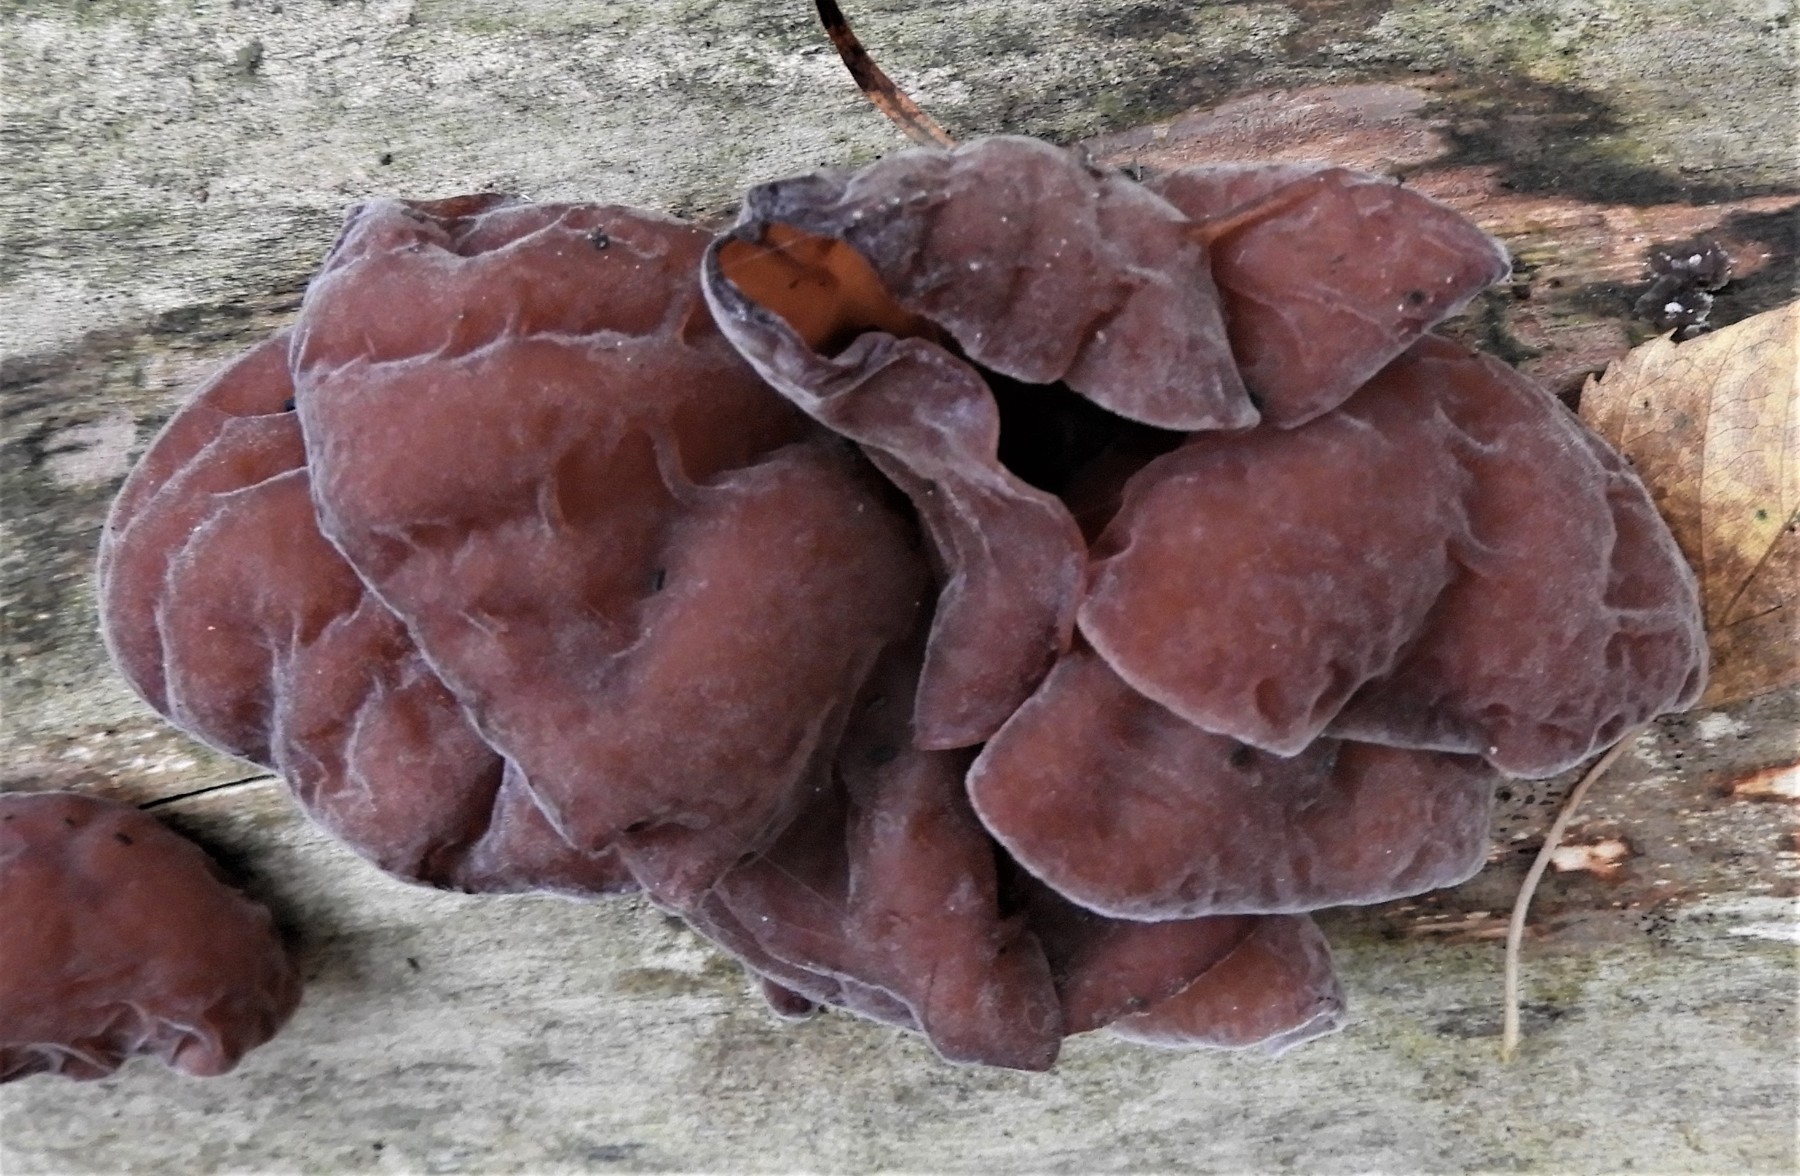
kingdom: Fungi
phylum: Basidiomycota
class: Agaricomycetes
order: Auriculariales
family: Auriculariaceae
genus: Auricularia
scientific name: Auricularia auricula-judae
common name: almindelig judasøre
